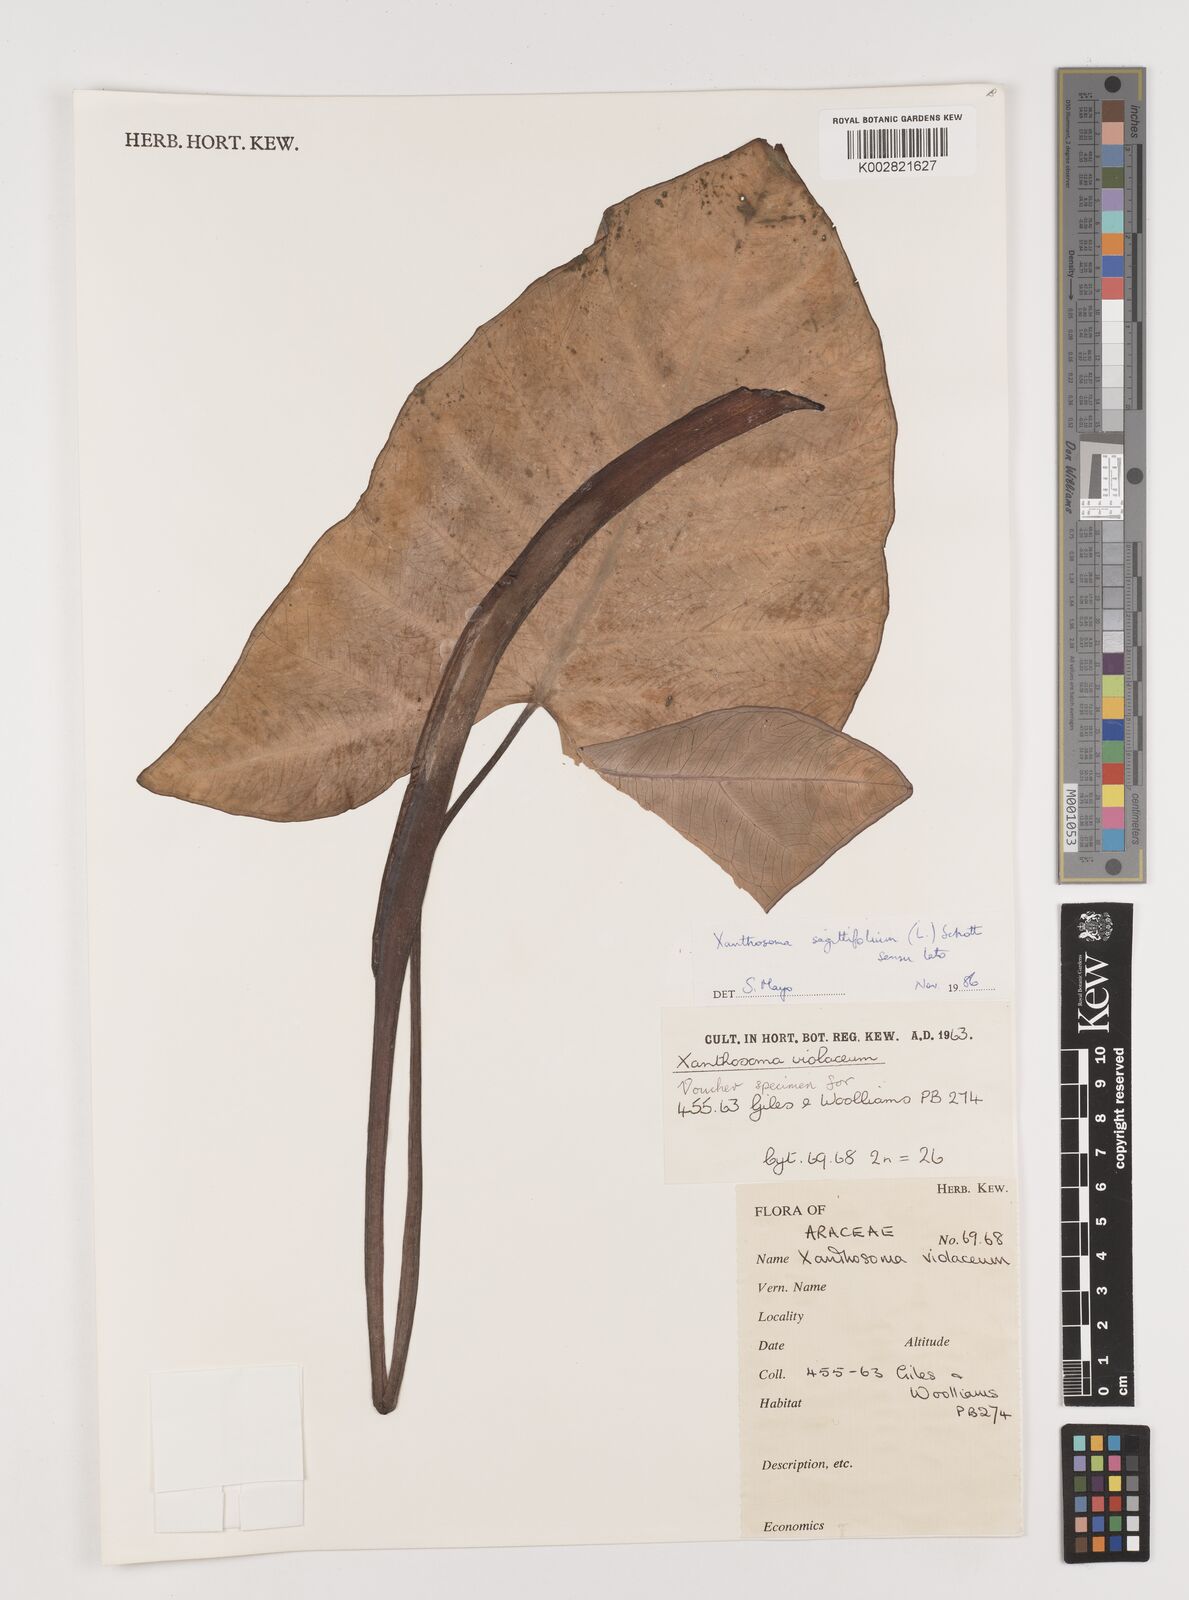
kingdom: Plantae
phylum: Tracheophyta
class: Liliopsida
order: Alismatales
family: Araceae
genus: Xanthosoma
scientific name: Xanthosoma sagittifolium
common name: Arrowleaf elephant's ear
